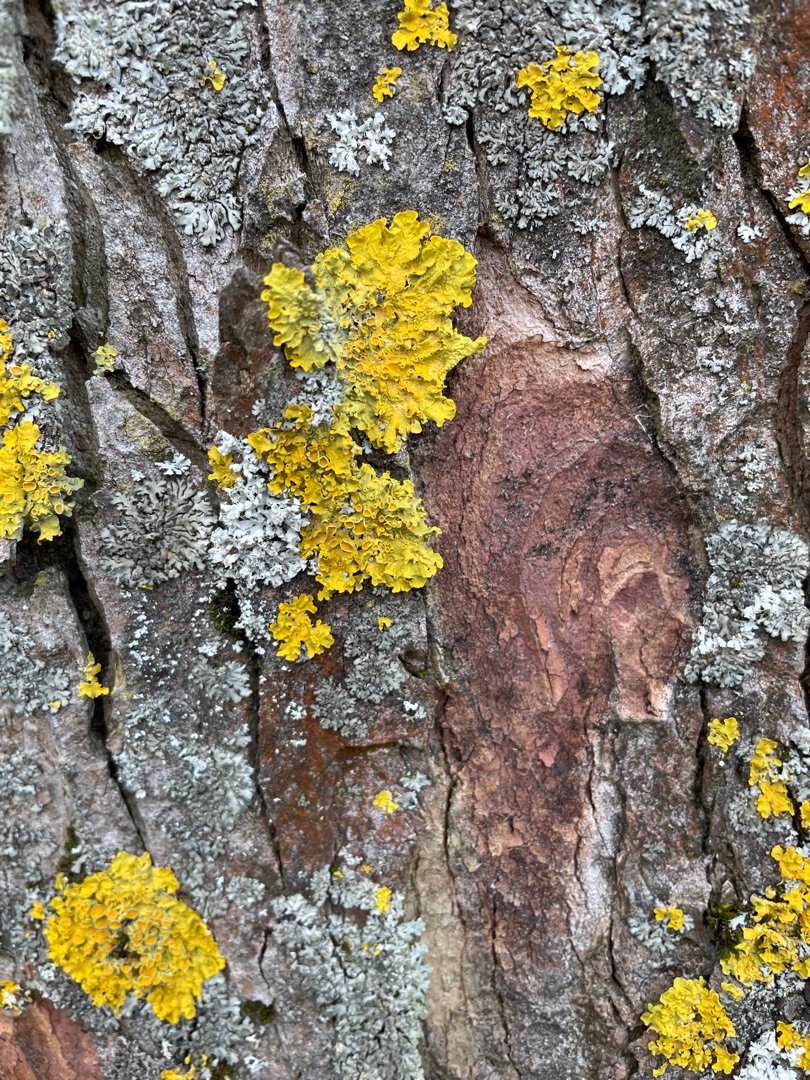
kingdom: Fungi
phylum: Ascomycota
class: Lecanoromycetes
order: Teloschistales
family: Teloschistaceae
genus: Xanthoria
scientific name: Xanthoria parietina
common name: Almindelig væggelav
